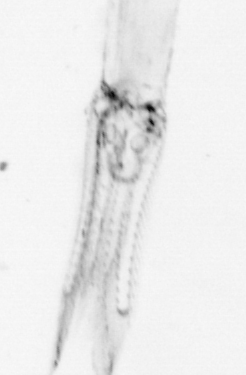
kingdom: Animalia
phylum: Chaetognatha
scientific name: Chaetognatha
